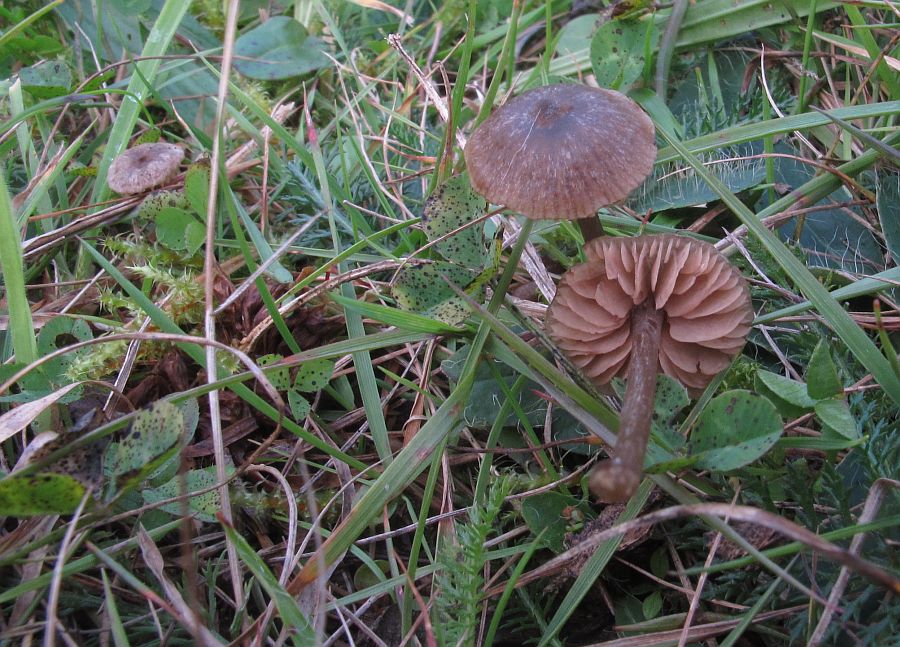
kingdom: Fungi
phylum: Basidiomycota
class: Agaricomycetes
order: Agaricales
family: Entolomataceae
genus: Entoloma
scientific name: Entoloma ortonii
